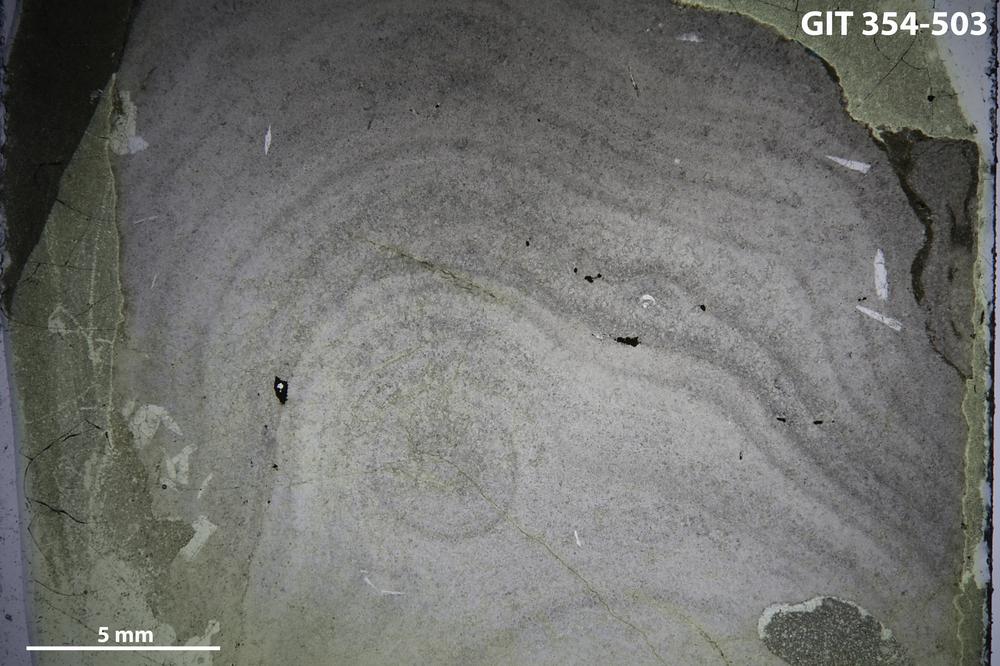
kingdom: Animalia
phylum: Porifera
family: Densastromatidae
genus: Densastroma
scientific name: Densastroma Actinostroma pexisum
